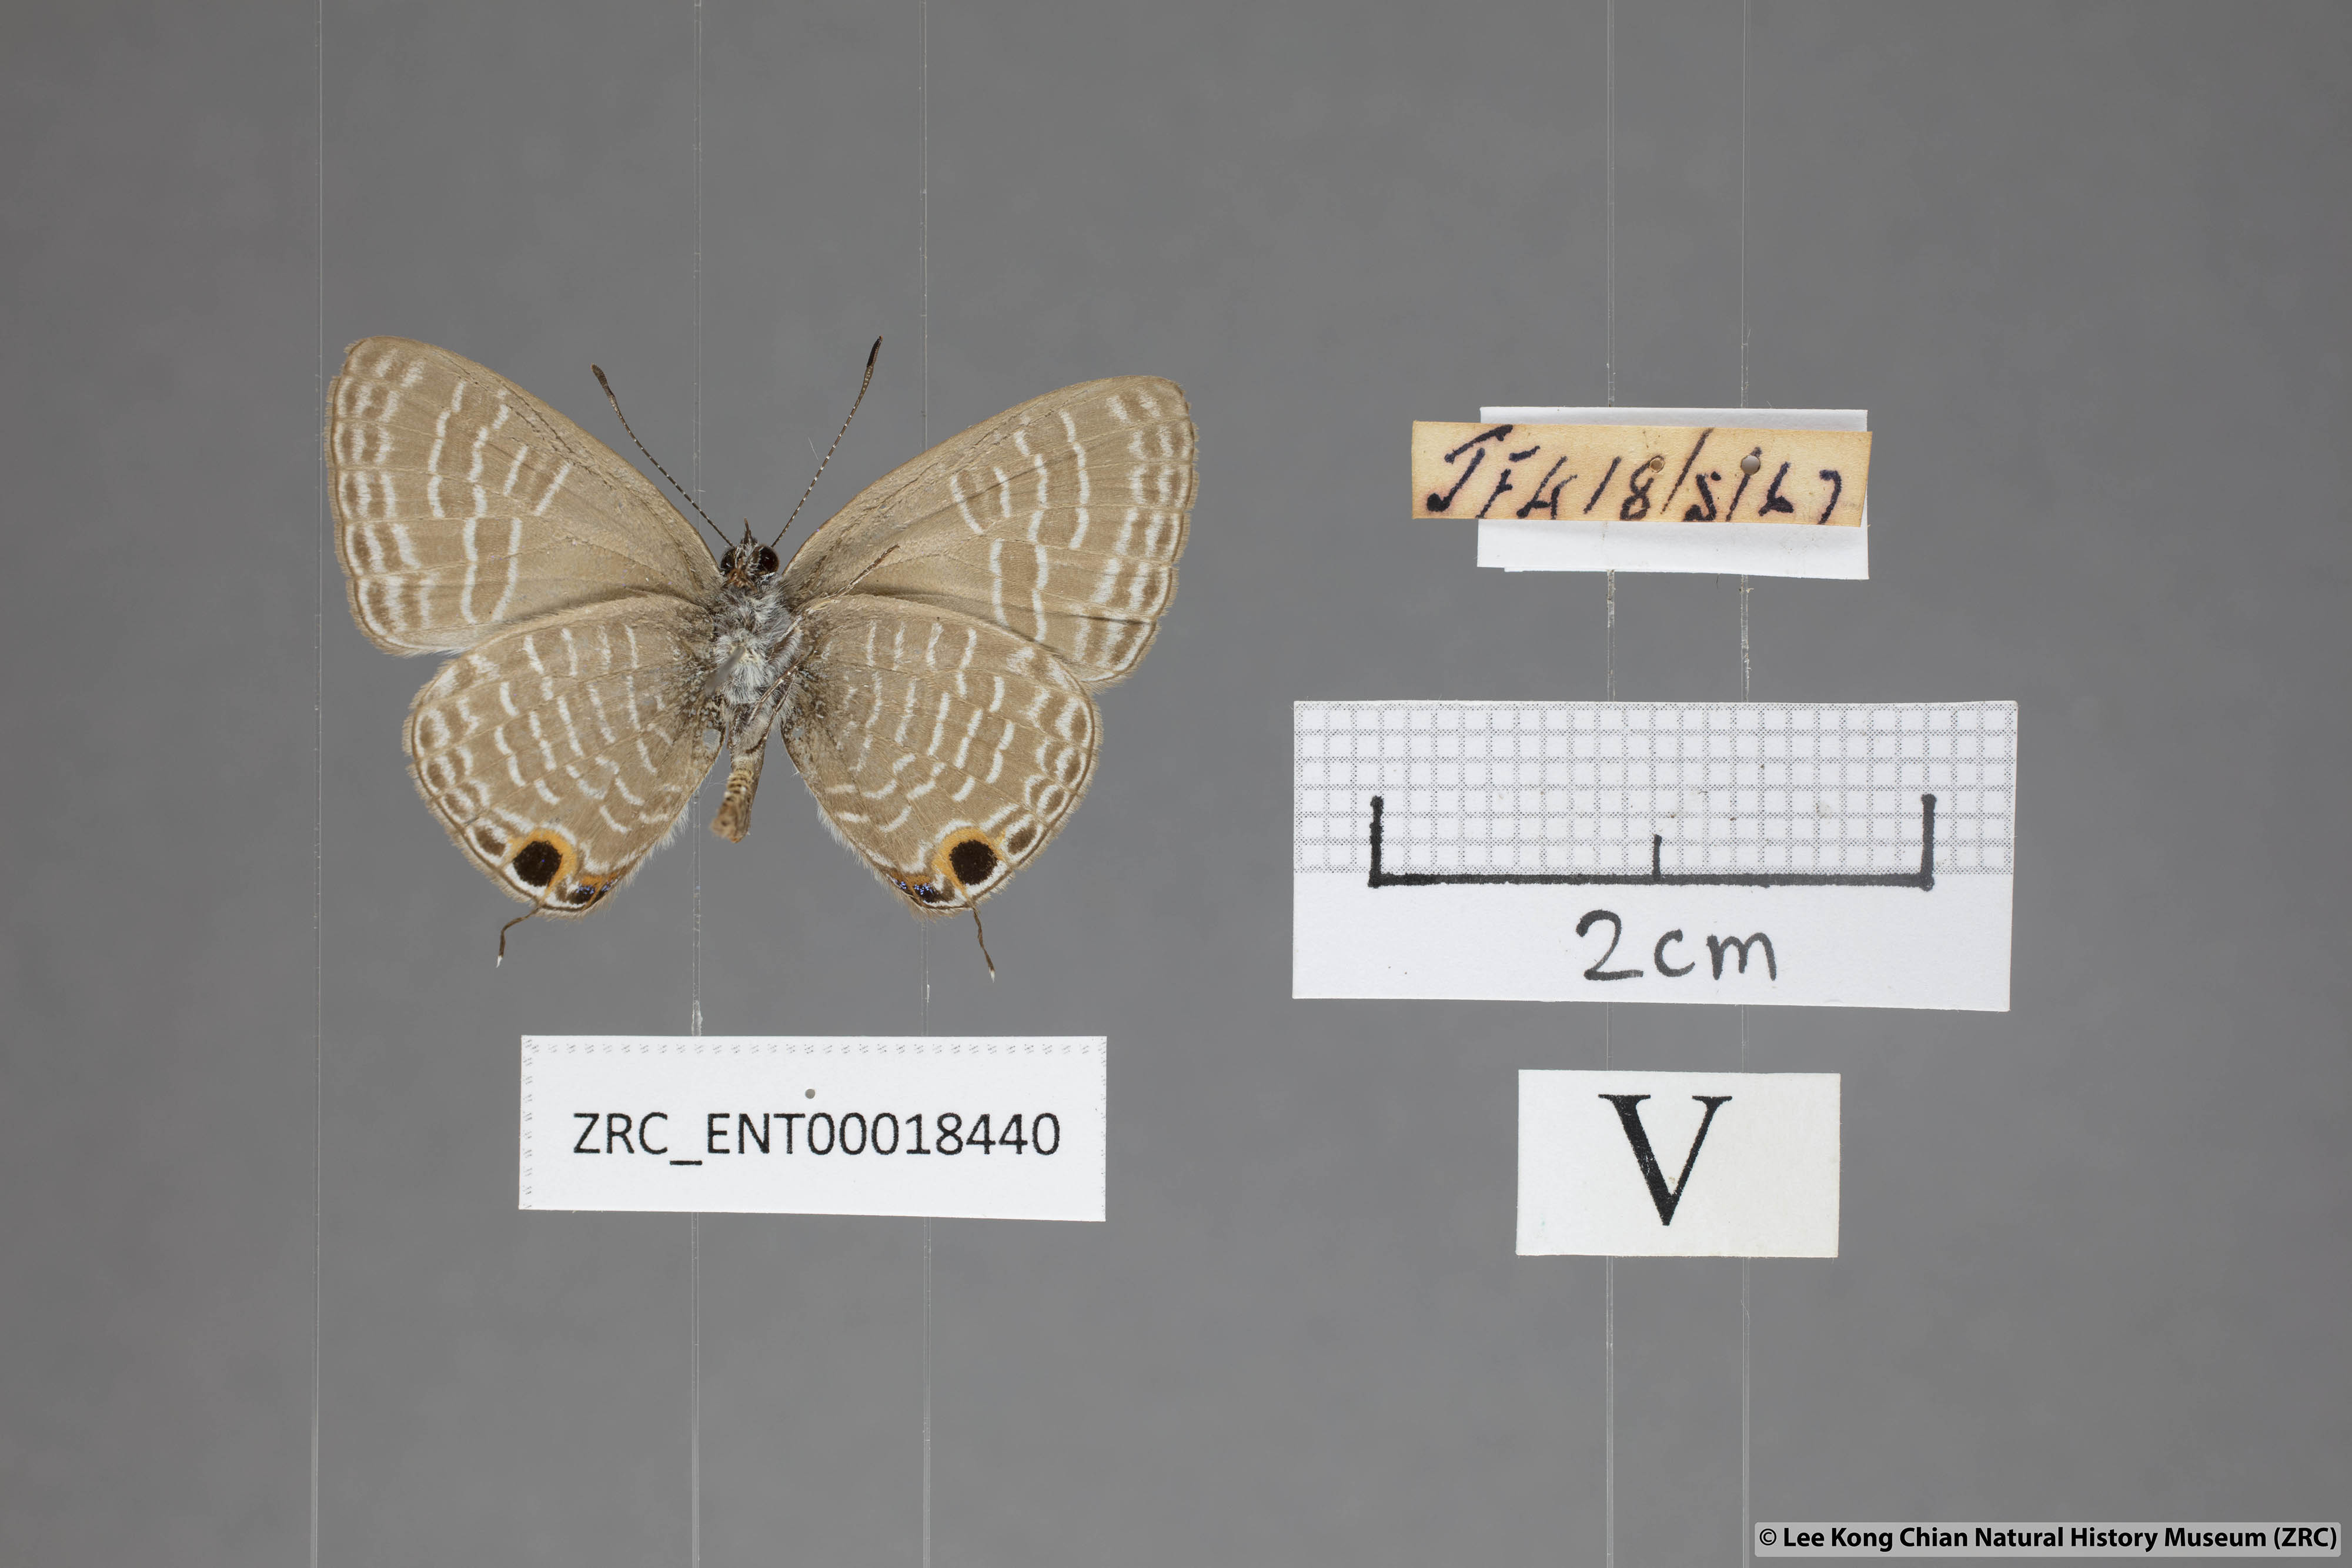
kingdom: Animalia
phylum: Arthropoda
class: Insecta
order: Lepidoptera
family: Lycaenidae
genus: Nacaduba
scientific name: Nacaduba pendleburyi
